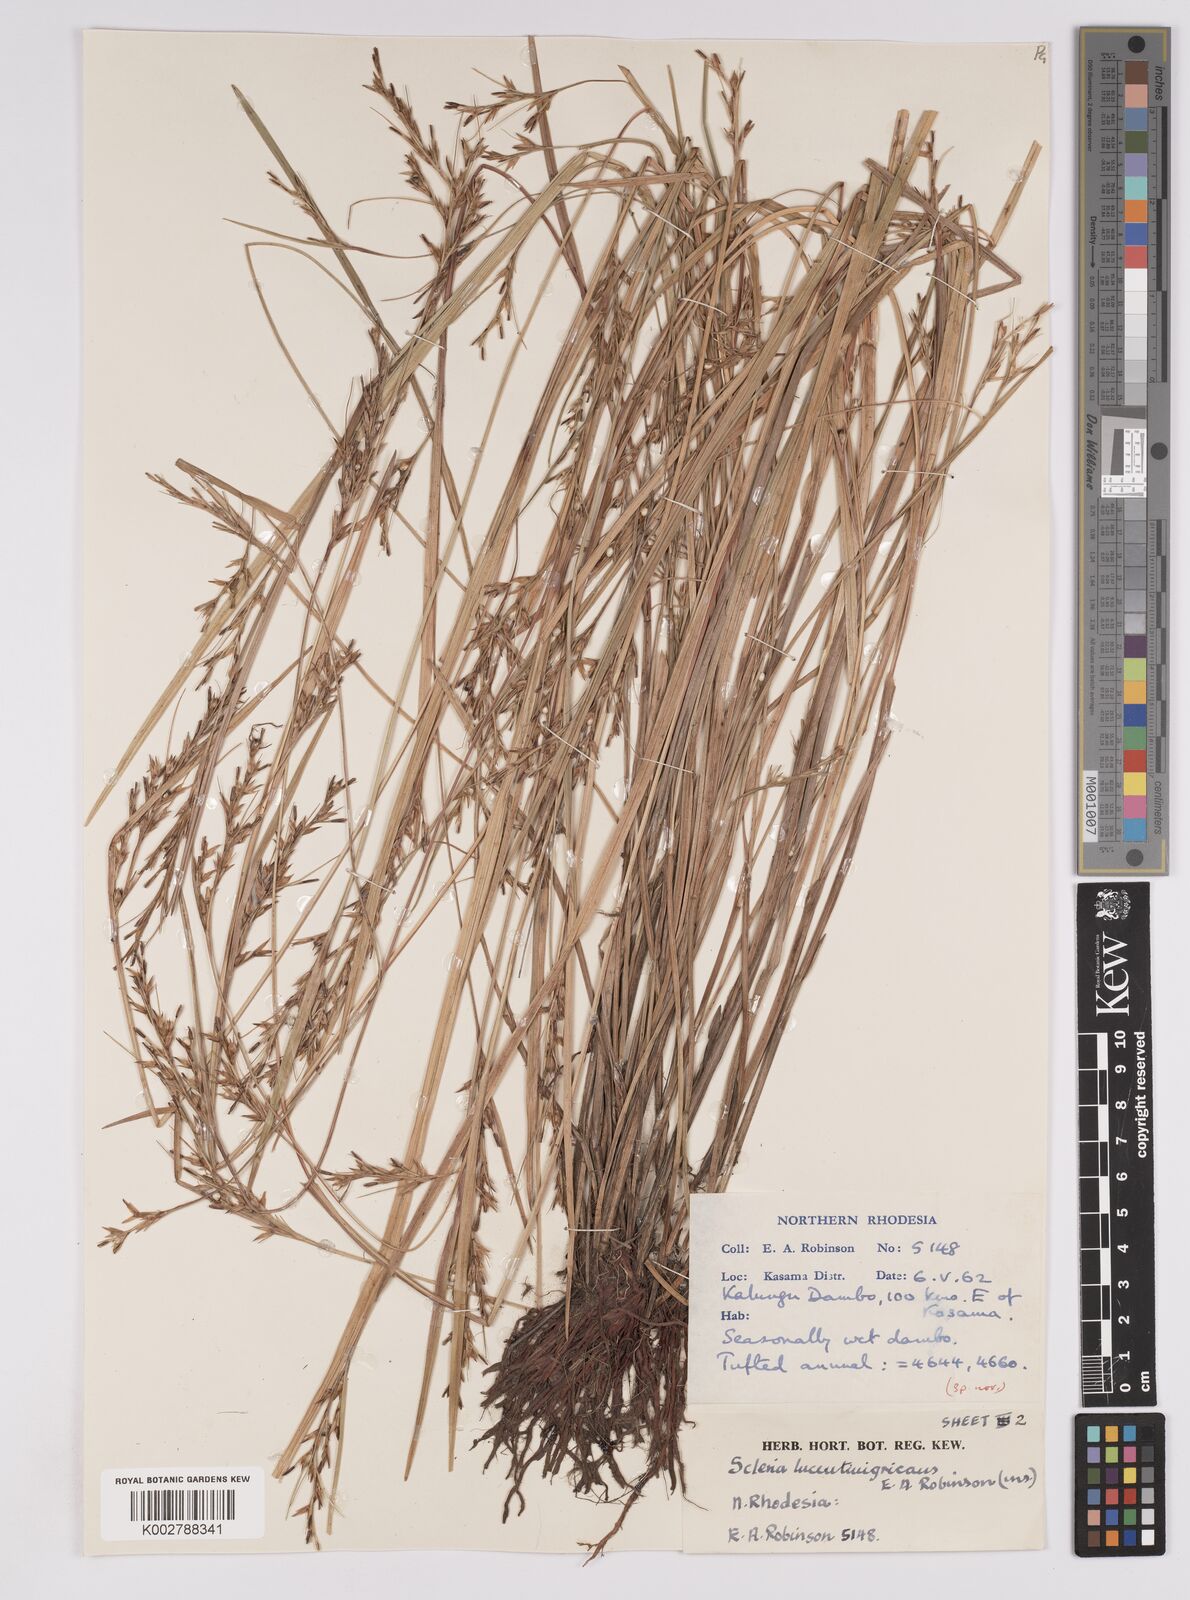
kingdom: Plantae
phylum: Tracheophyta
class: Liliopsida
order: Poales
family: Cyperaceae
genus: Scleria
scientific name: Scleria lucentinigricans
